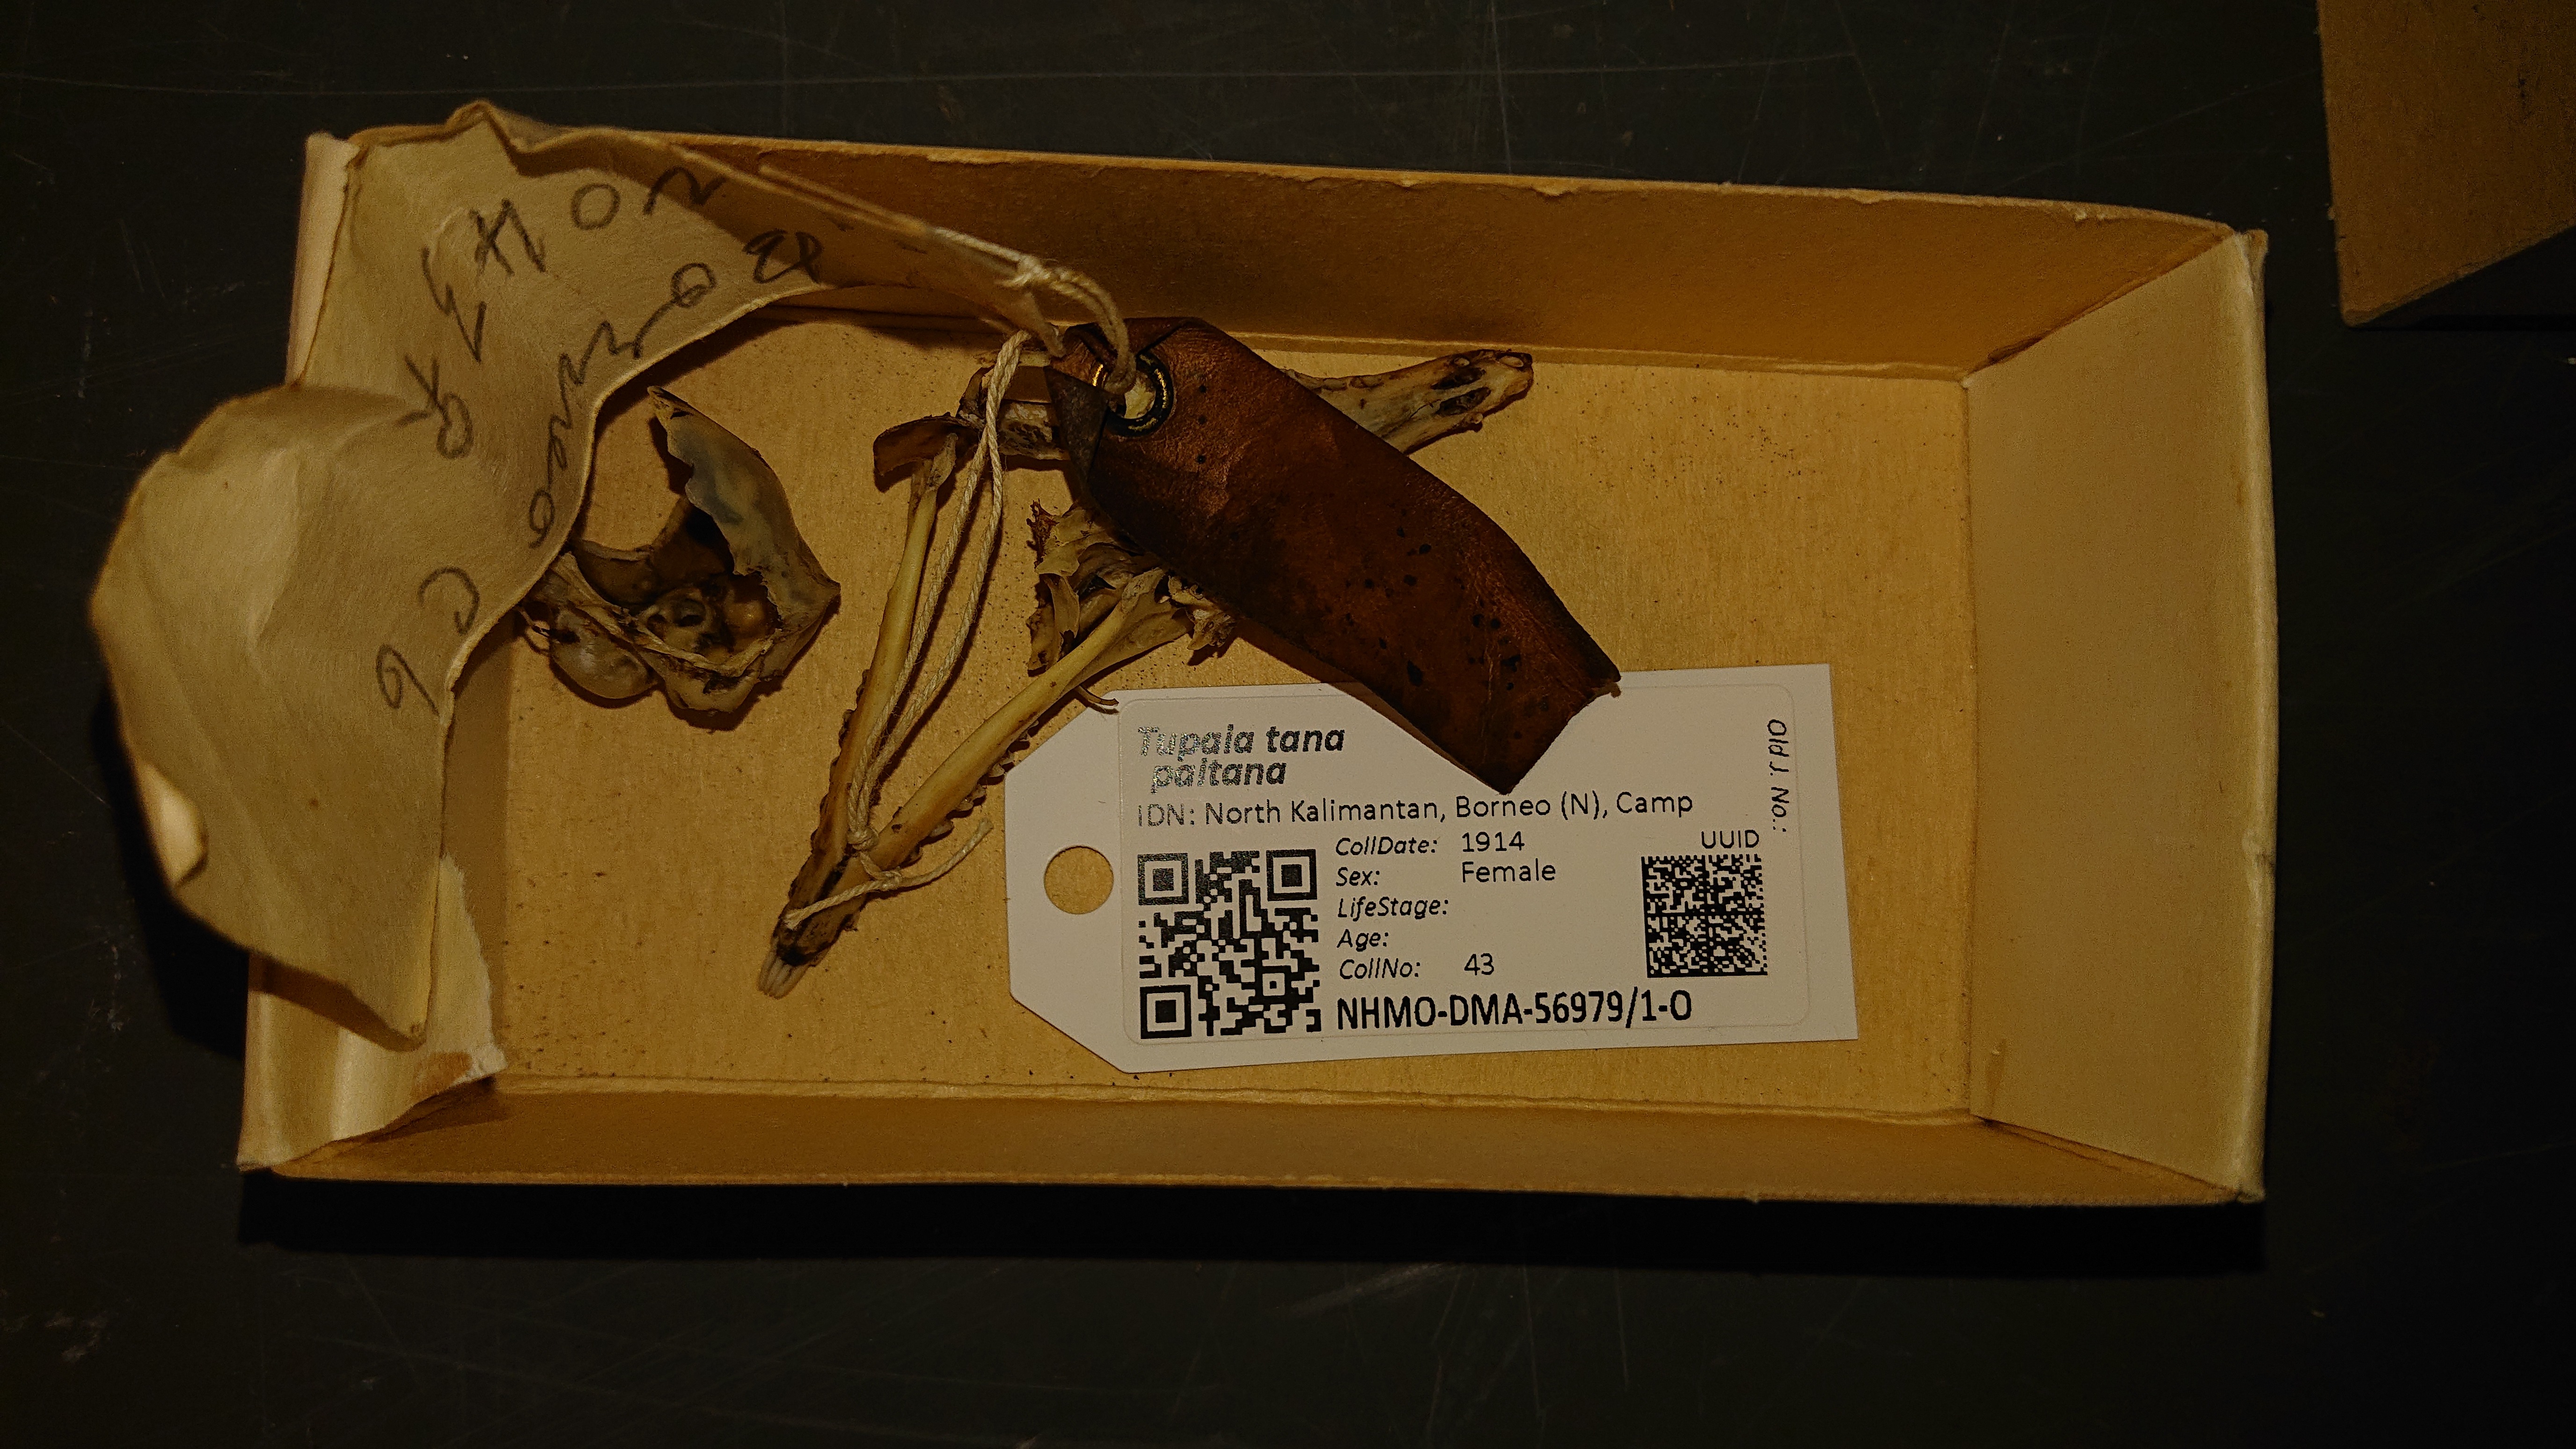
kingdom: Animalia
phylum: Chordata
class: Mammalia
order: Scandentia
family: Tupaiidae
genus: Tupaia
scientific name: Tupaia tana
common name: Large treeshrew
